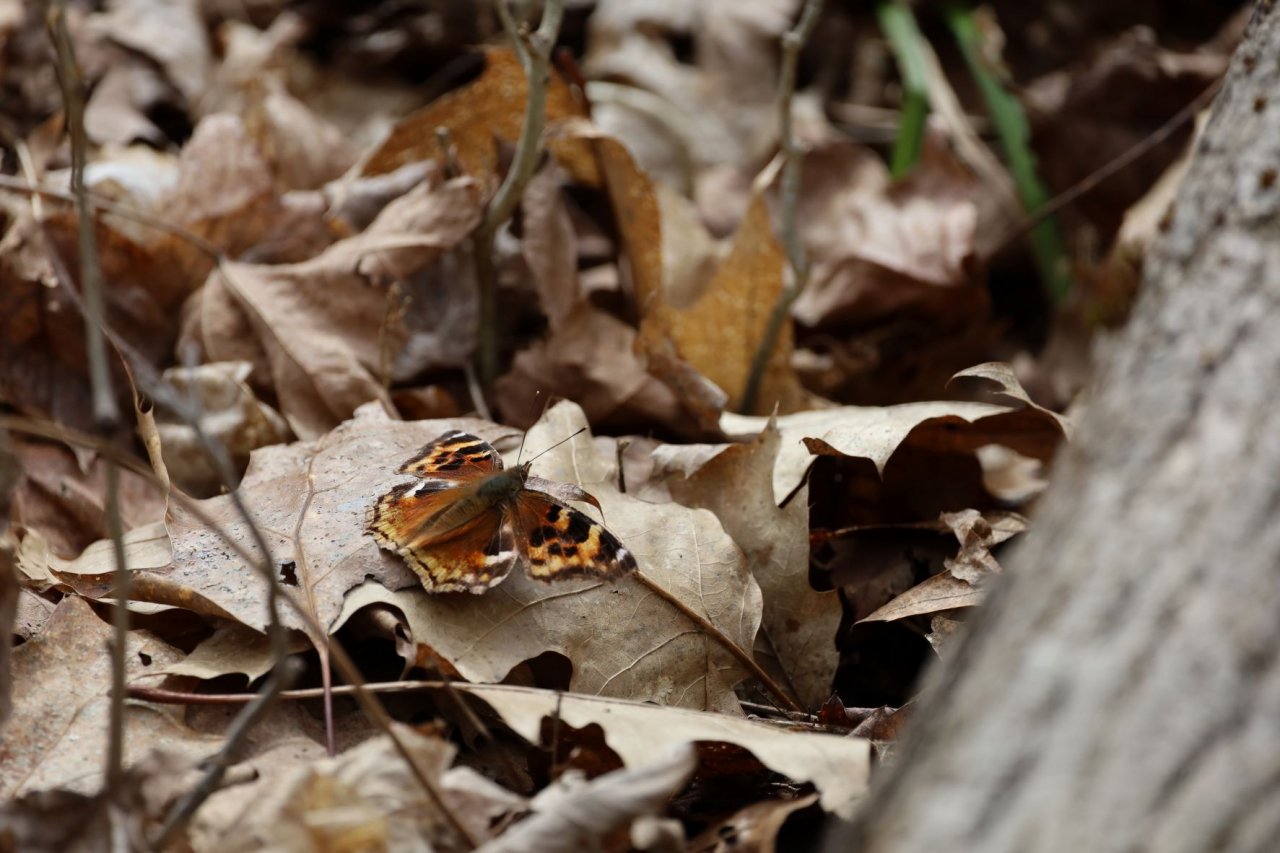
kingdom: Animalia
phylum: Arthropoda
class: Insecta
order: Lepidoptera
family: Nymphalidae
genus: Polygonia
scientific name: Polygonia vaualbum
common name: Compton Tortoiseshell
